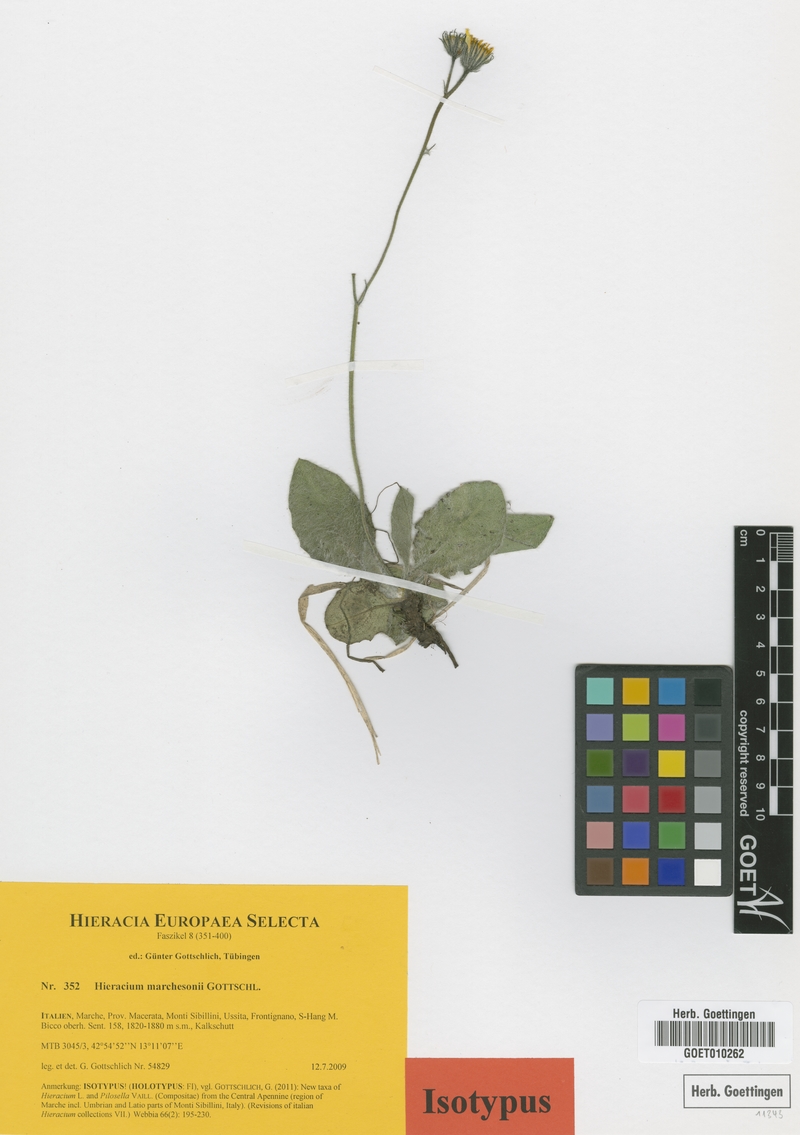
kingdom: Plantae
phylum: Tracheophyta
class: Magnoliopsida
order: Asterales
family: Asteraceae
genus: Hieracium
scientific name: Hieracium marchesonii
